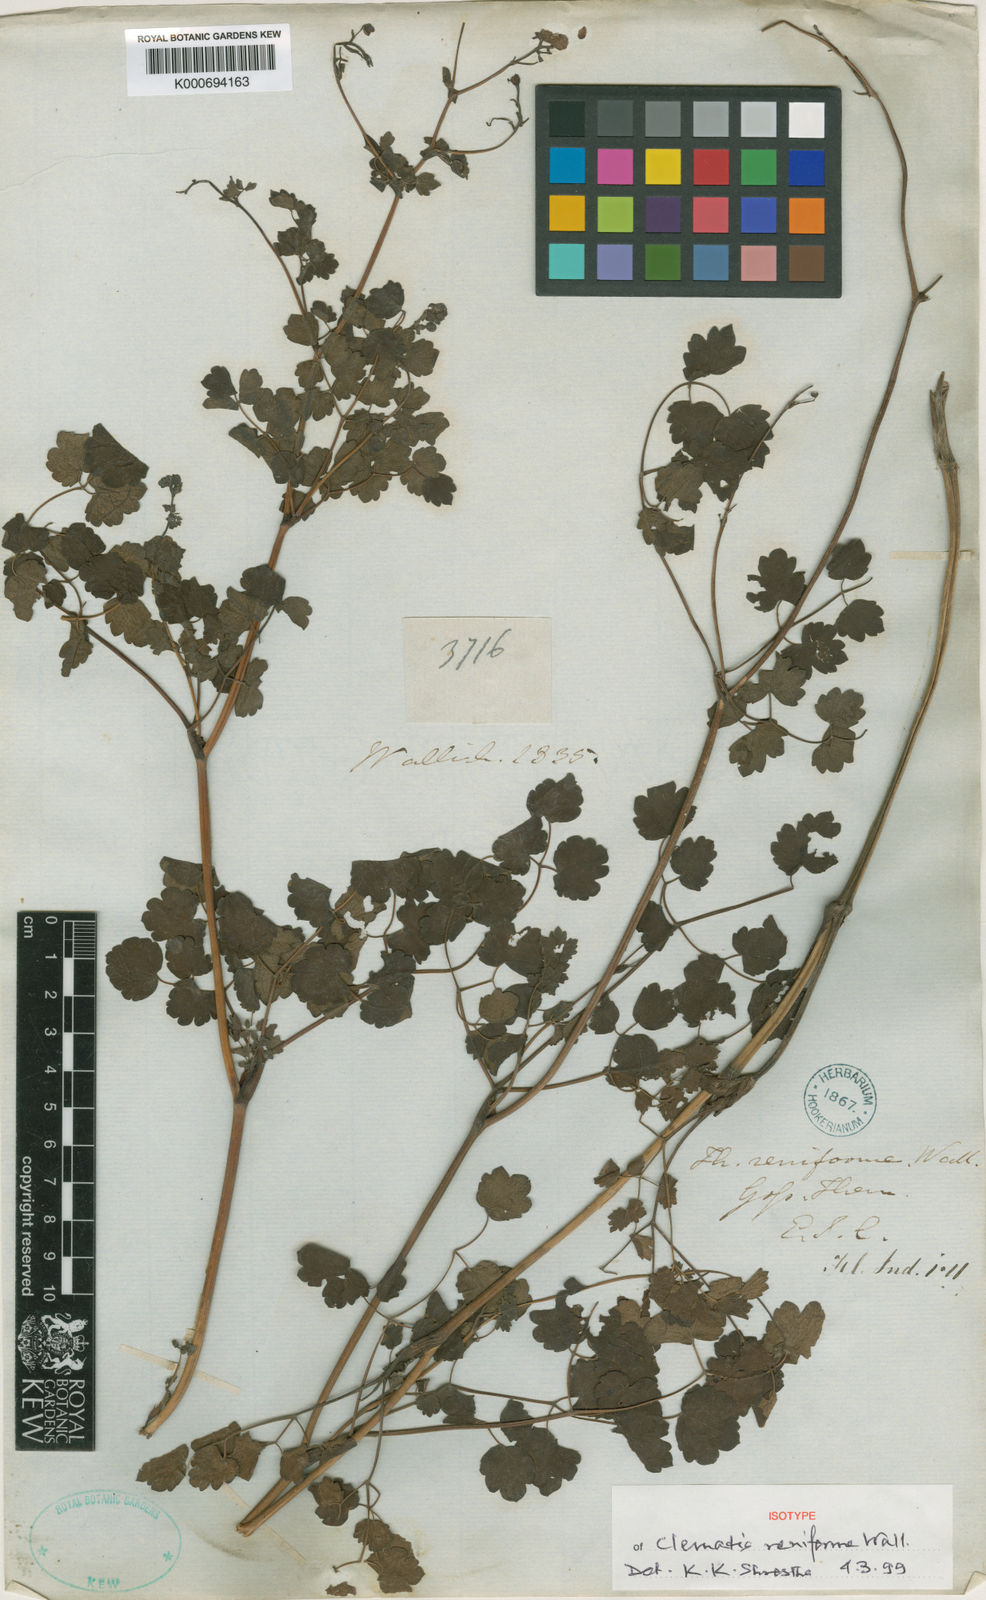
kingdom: Plantae
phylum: Tracheophyta
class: Magnoliopsida
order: Ranunculales
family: Ranunculaceae
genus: Thalictrum
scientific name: Thalictrum reniforme
